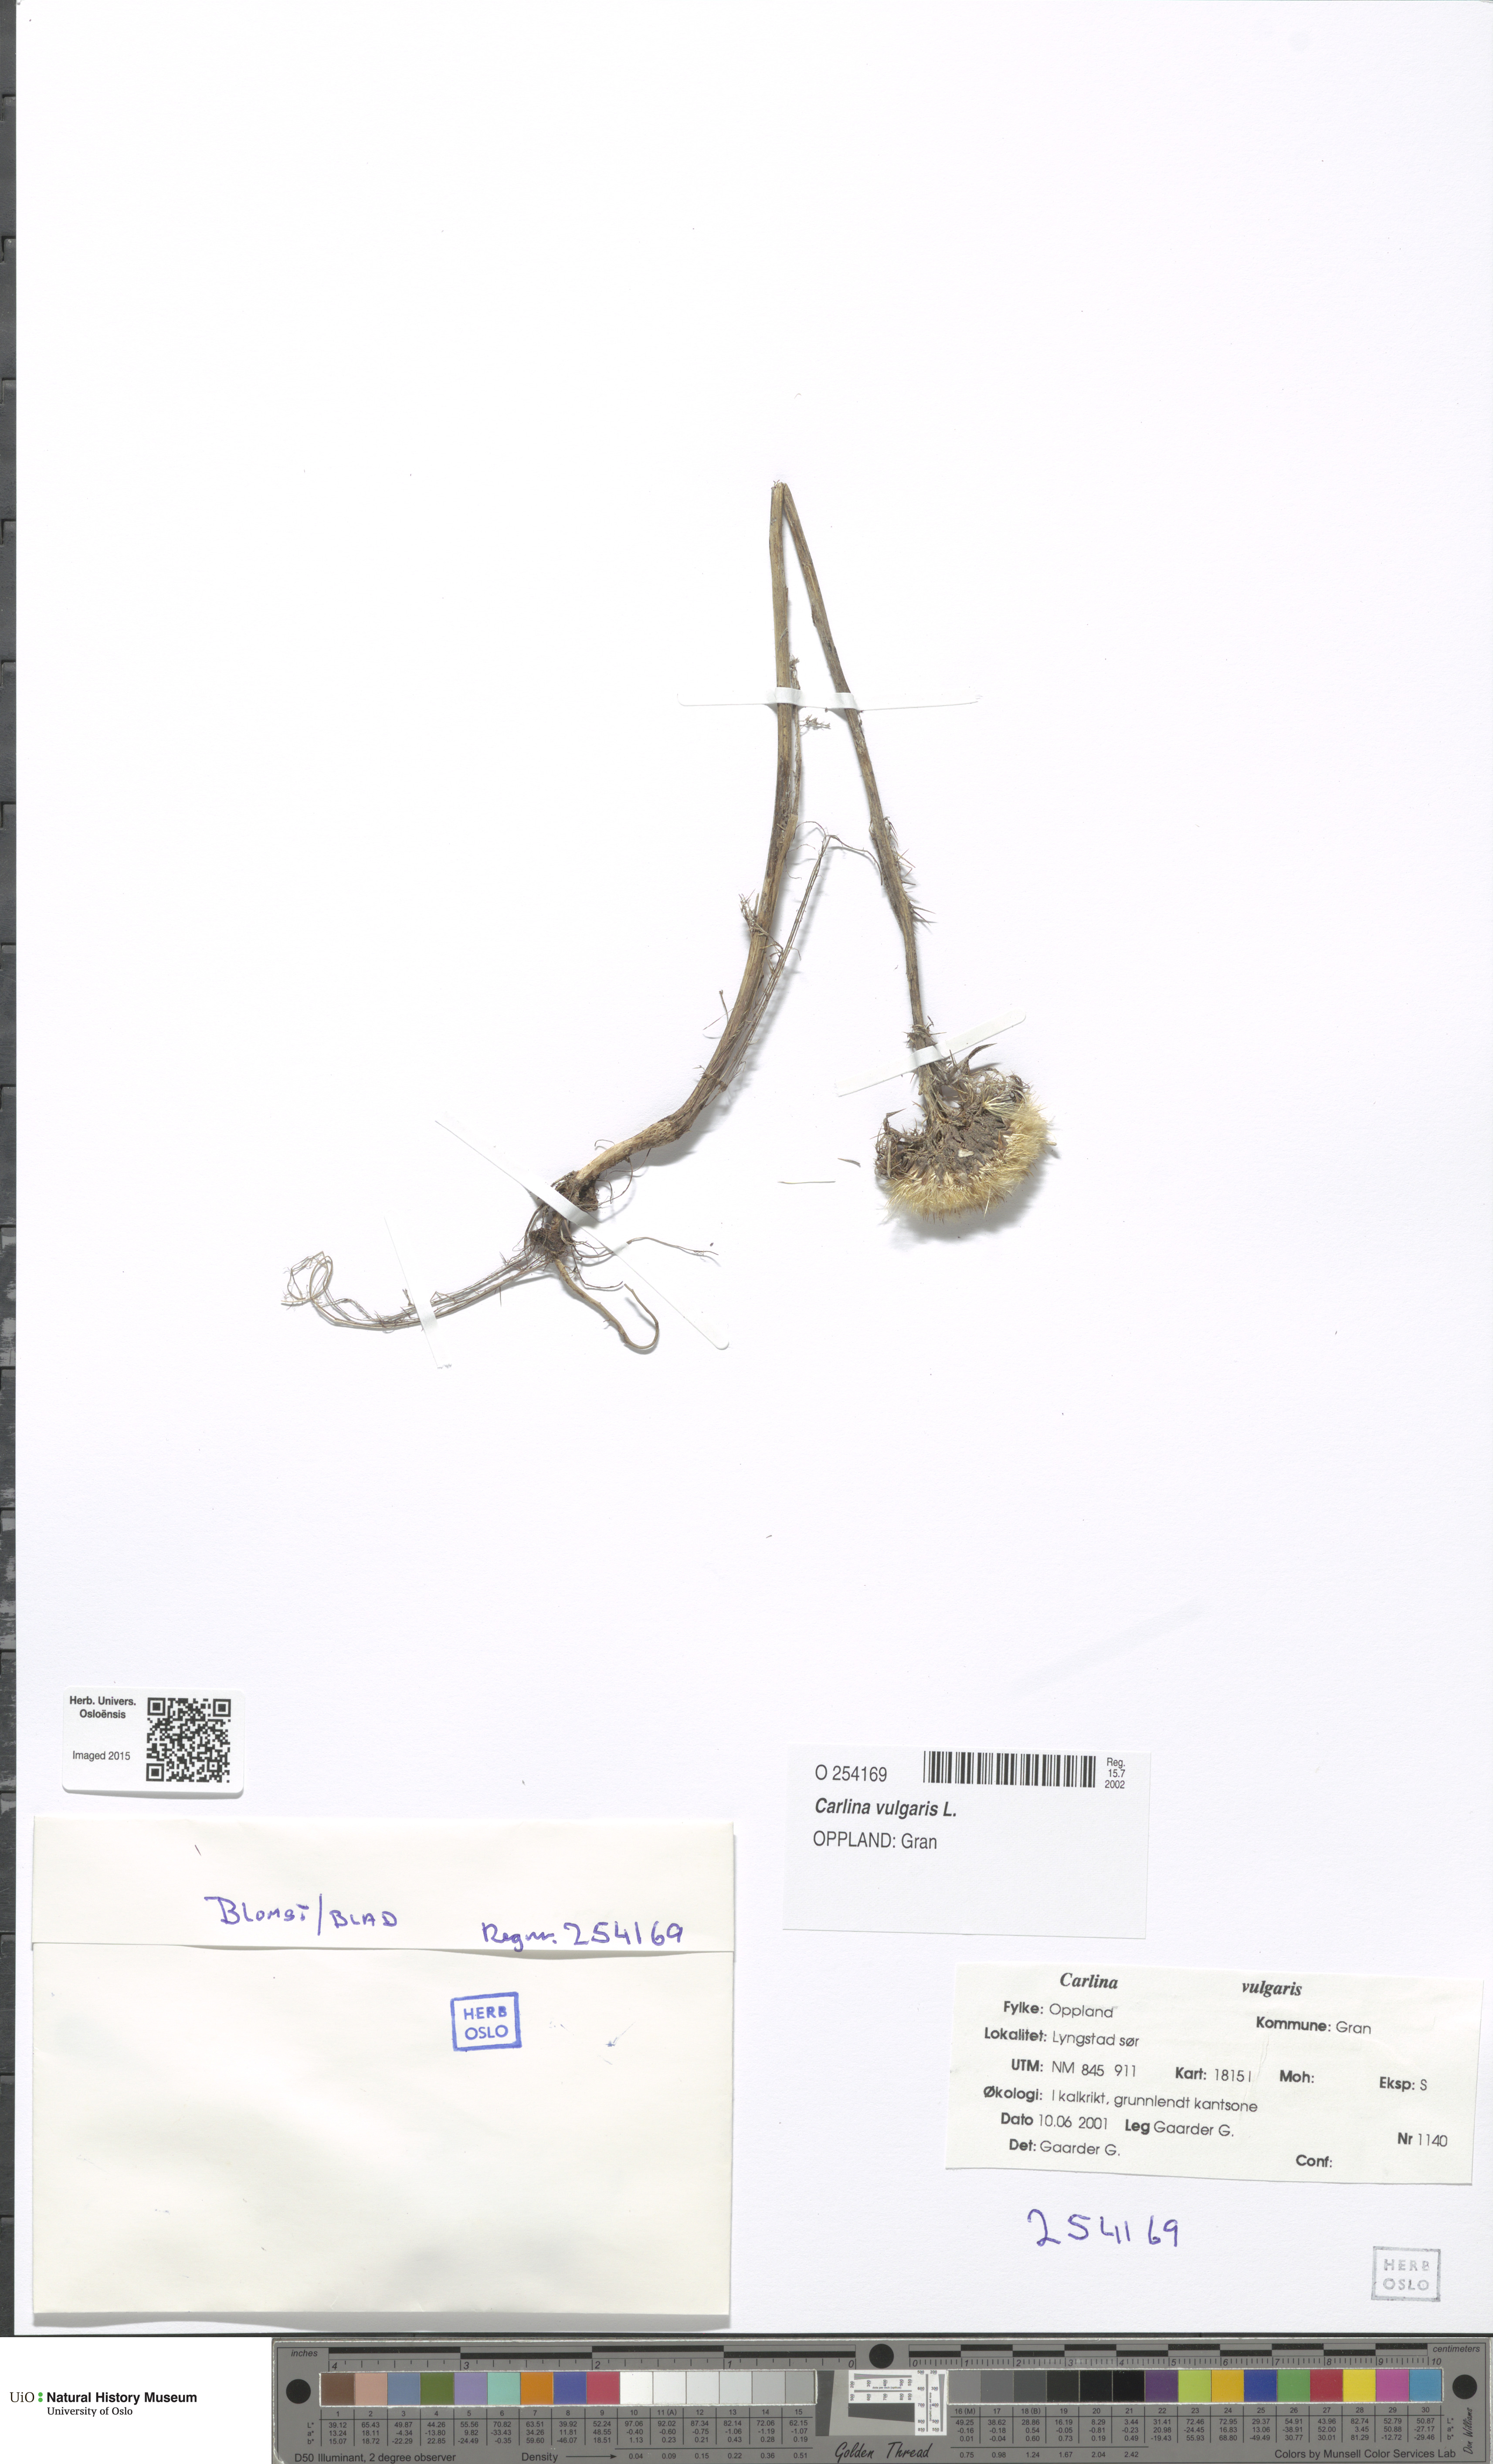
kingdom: Plantae
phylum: Tracheophyta
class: Magnoliopsida
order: Asterales
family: Asteraceae
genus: Carlina
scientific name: Carlina vulgaris
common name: Carline thistle
